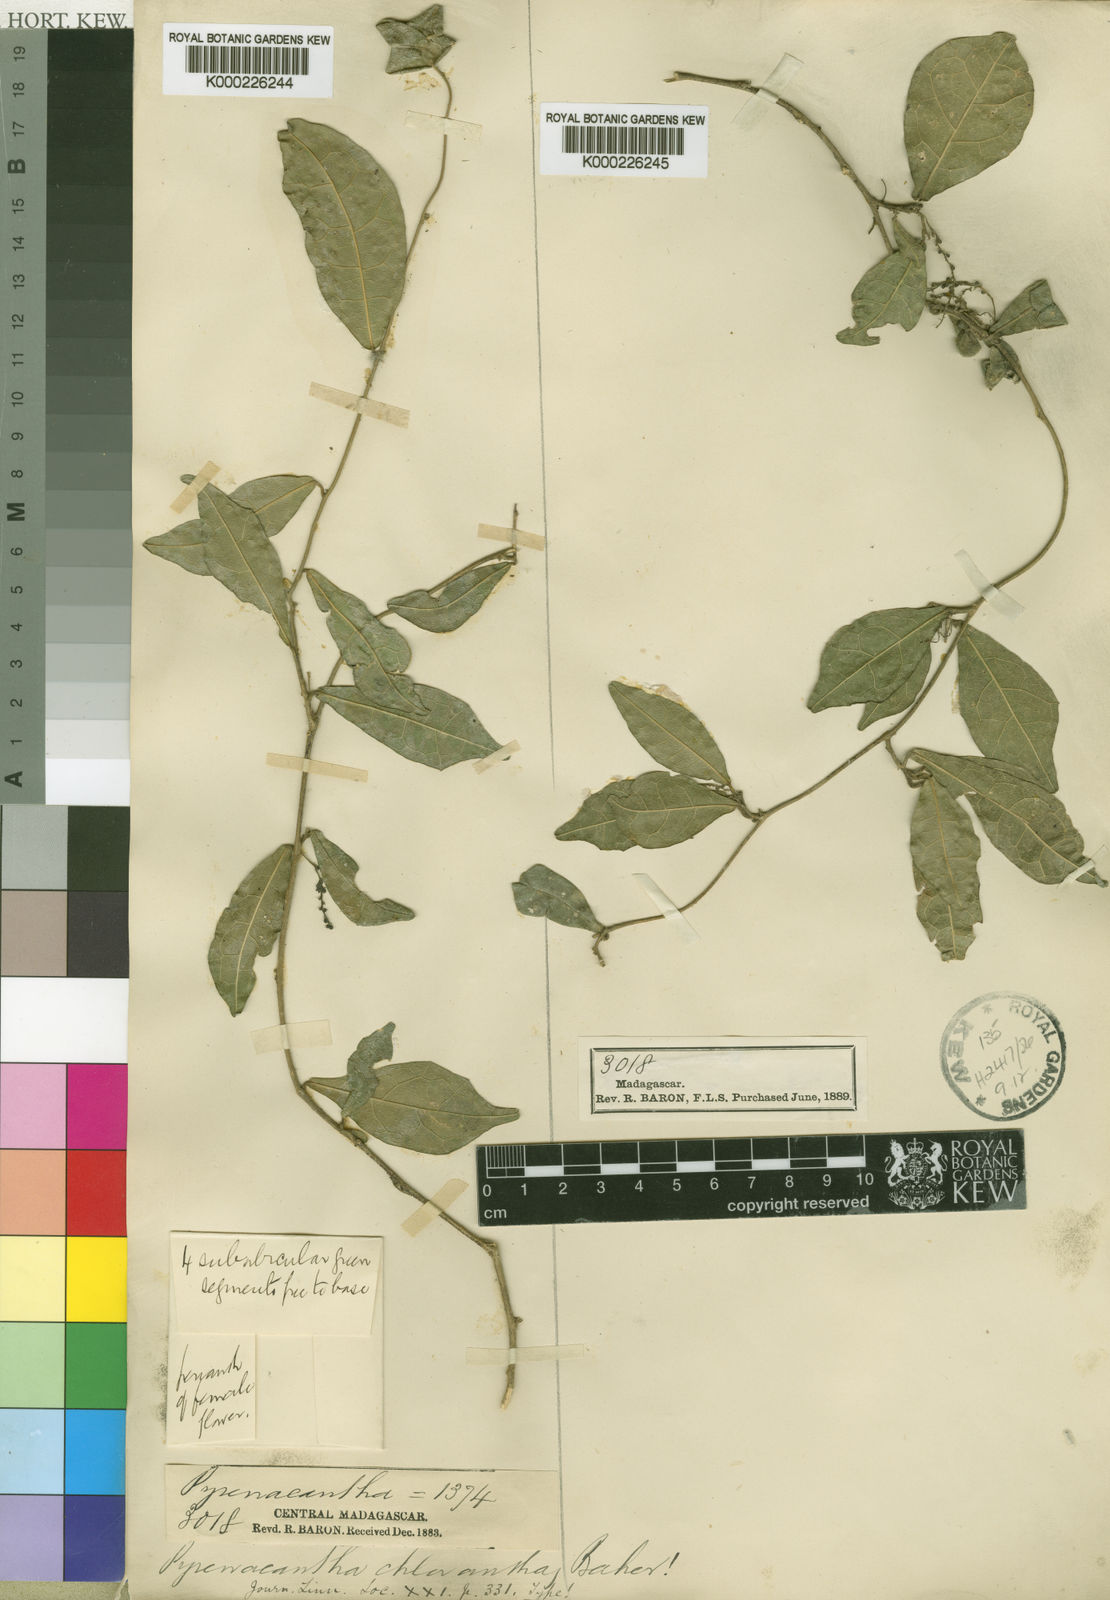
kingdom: Plantae
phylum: Tracheophyta
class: Magnoliopsida
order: Icacinales
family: Icacinaceae
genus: Pyrenacantha
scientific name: Pyrenacantha chlorantha
